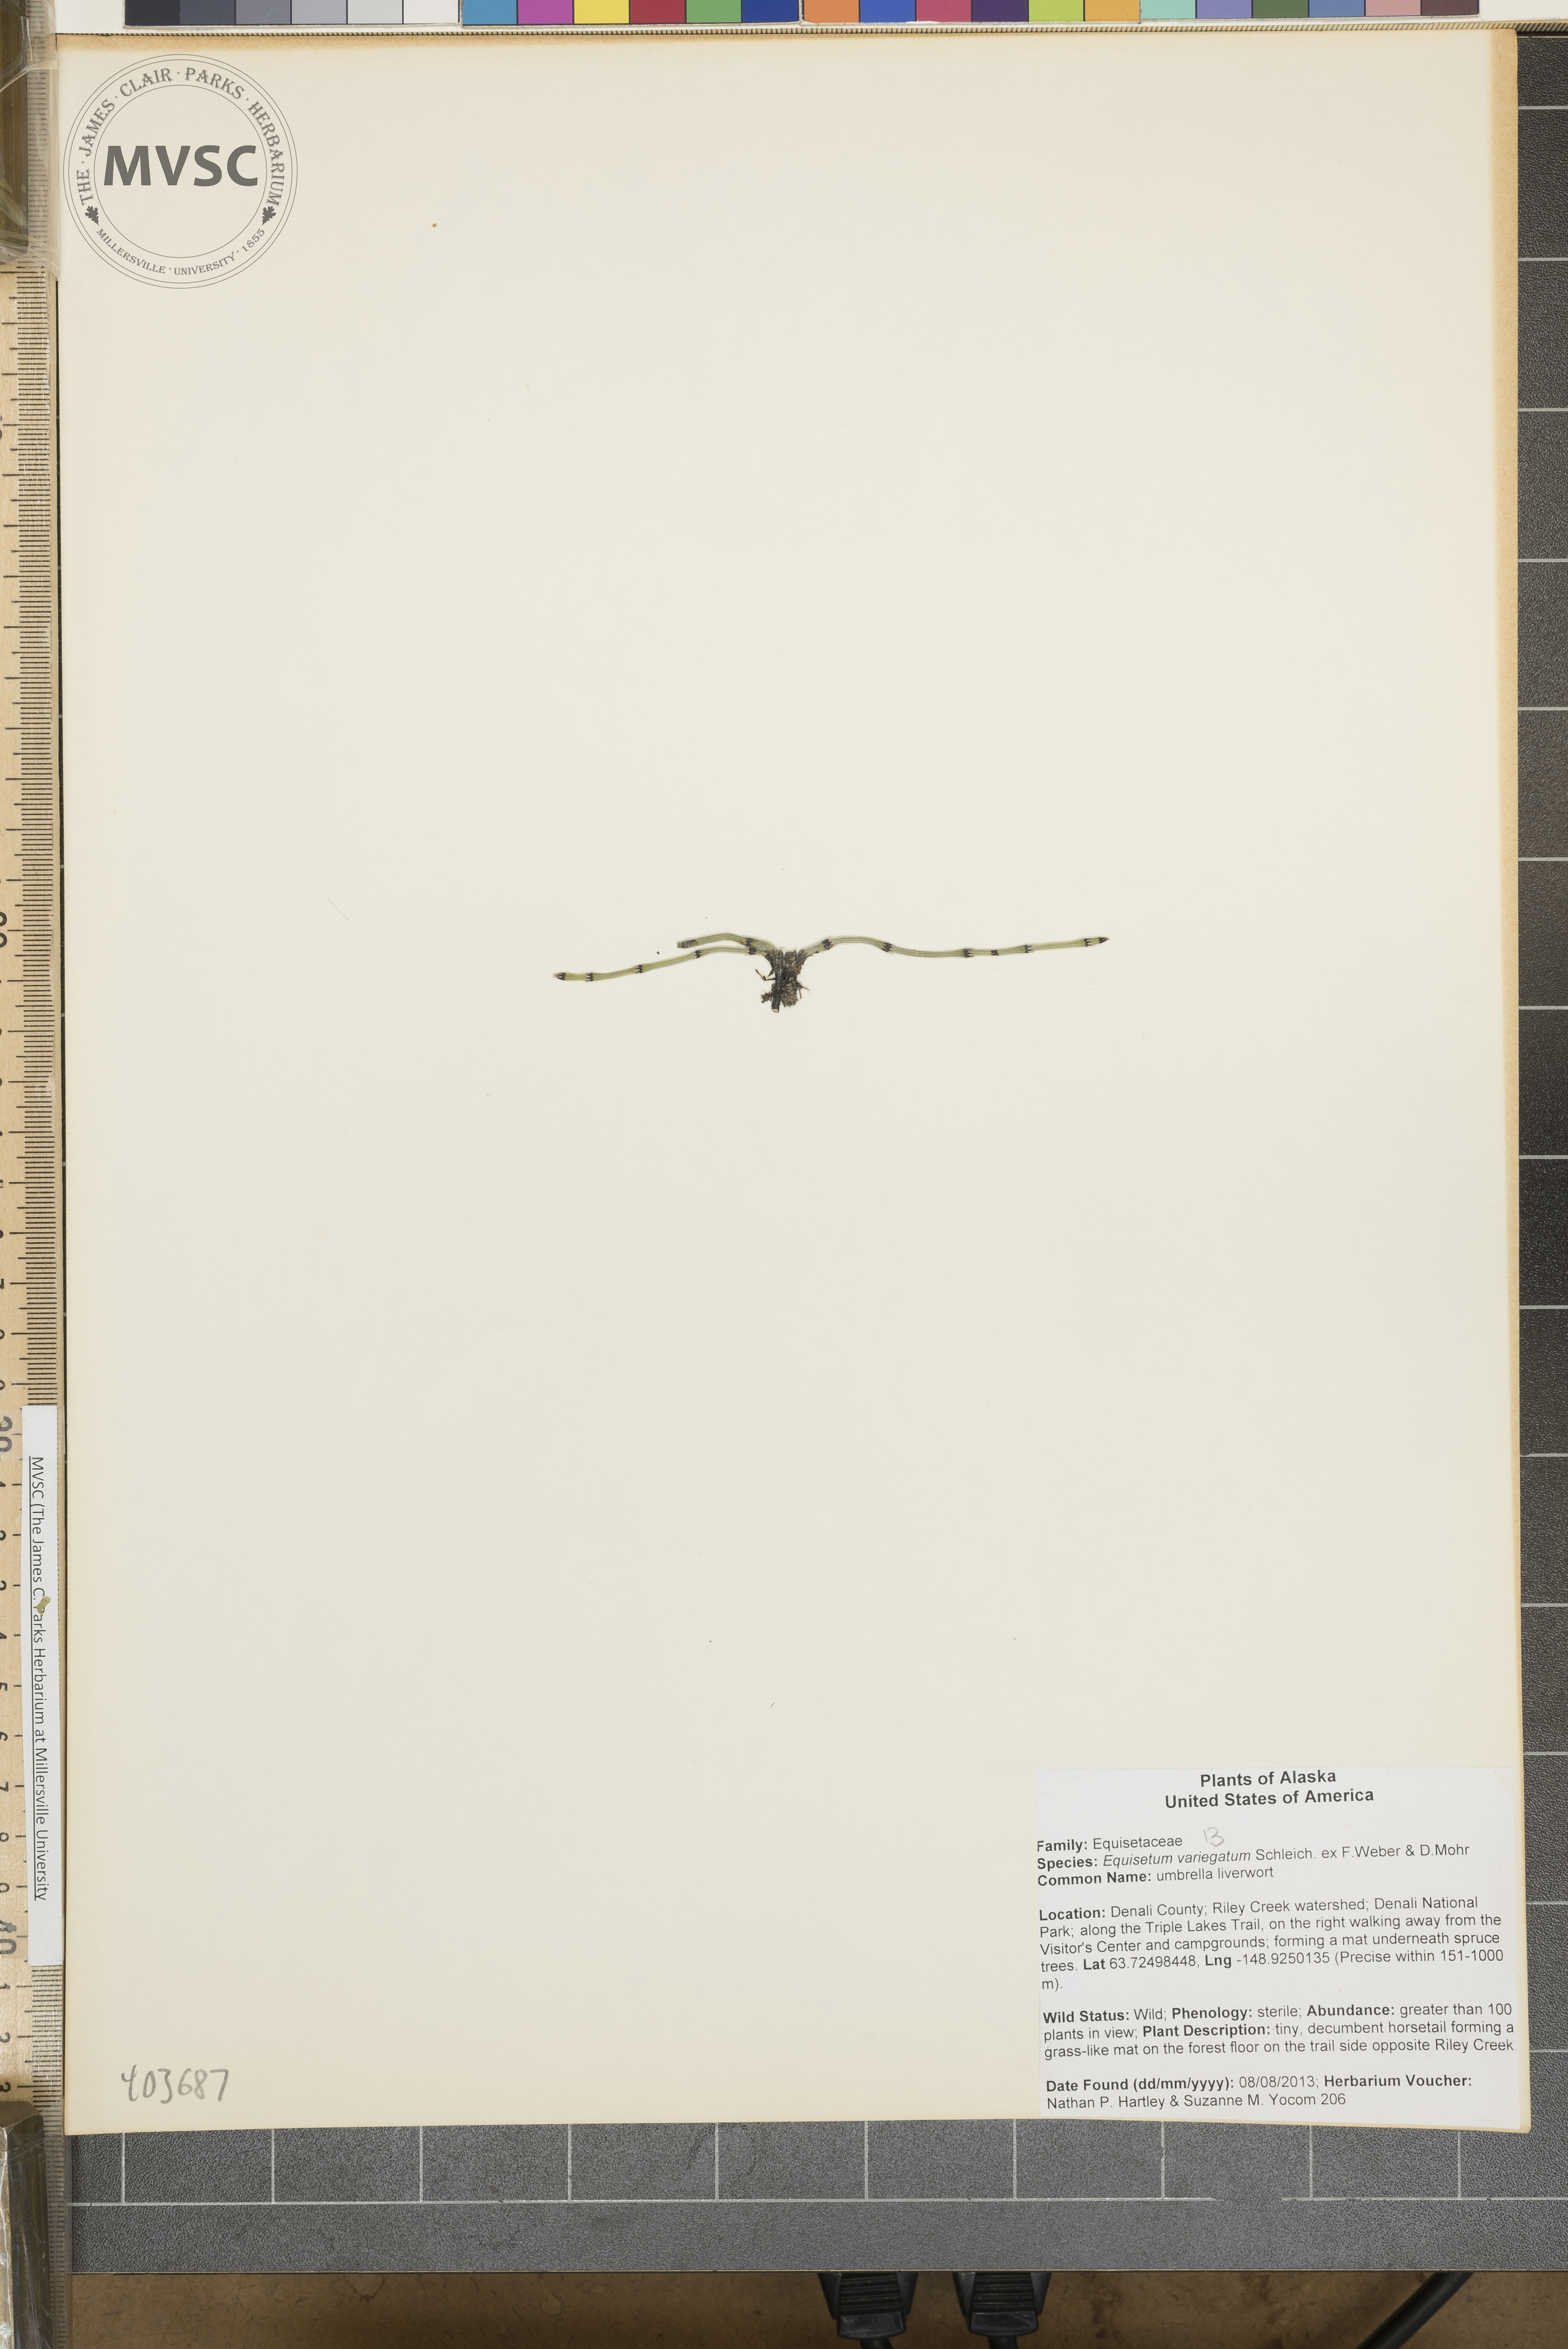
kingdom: Plantae
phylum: Tracheophyta
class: Polypodiopsida
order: Equisetales
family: Equisetaceae
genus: Equisetum
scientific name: Equisetum variegatum
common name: variegated horsetail
